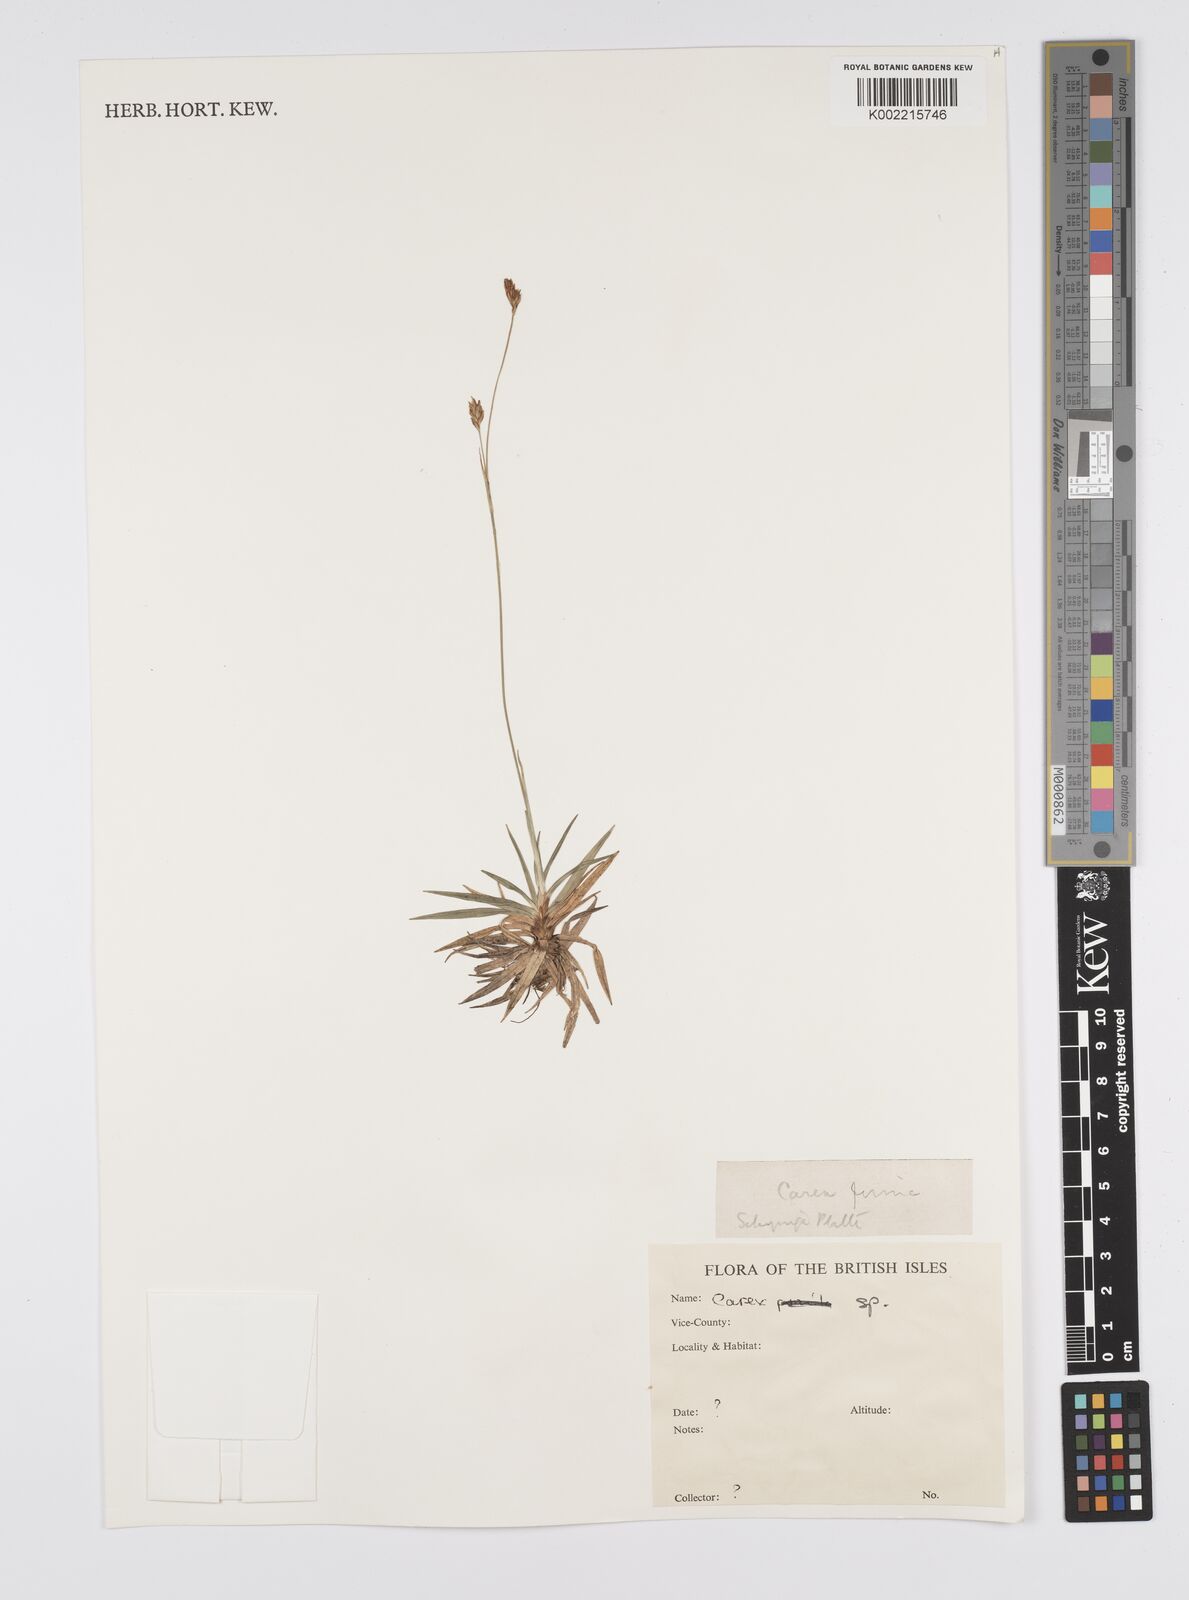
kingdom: Plantae
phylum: Tracheophyta
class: Liliopsida
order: Poales
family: Cyperaceae
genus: Carex
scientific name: Carex
